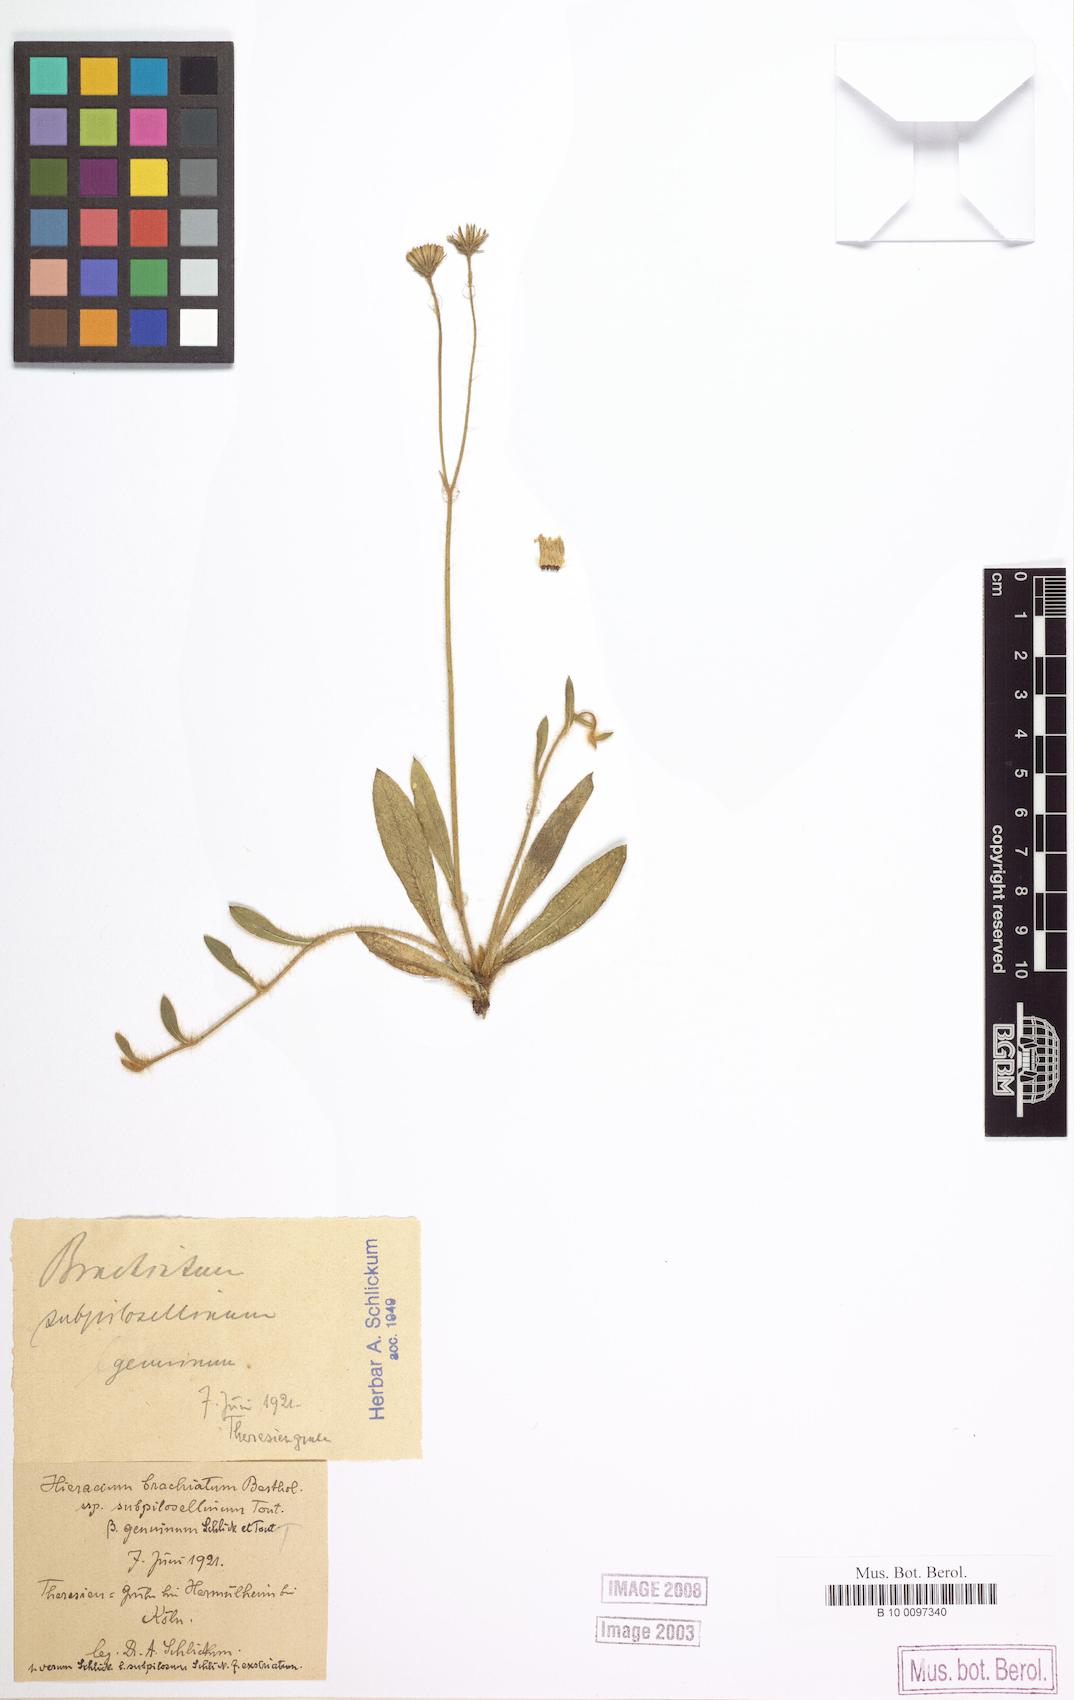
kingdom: Plantae
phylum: Tracheophyta
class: Magnoliopsida
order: Asterales
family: Asteraceae
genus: Pilosella
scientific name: Pilosella acutifolia
